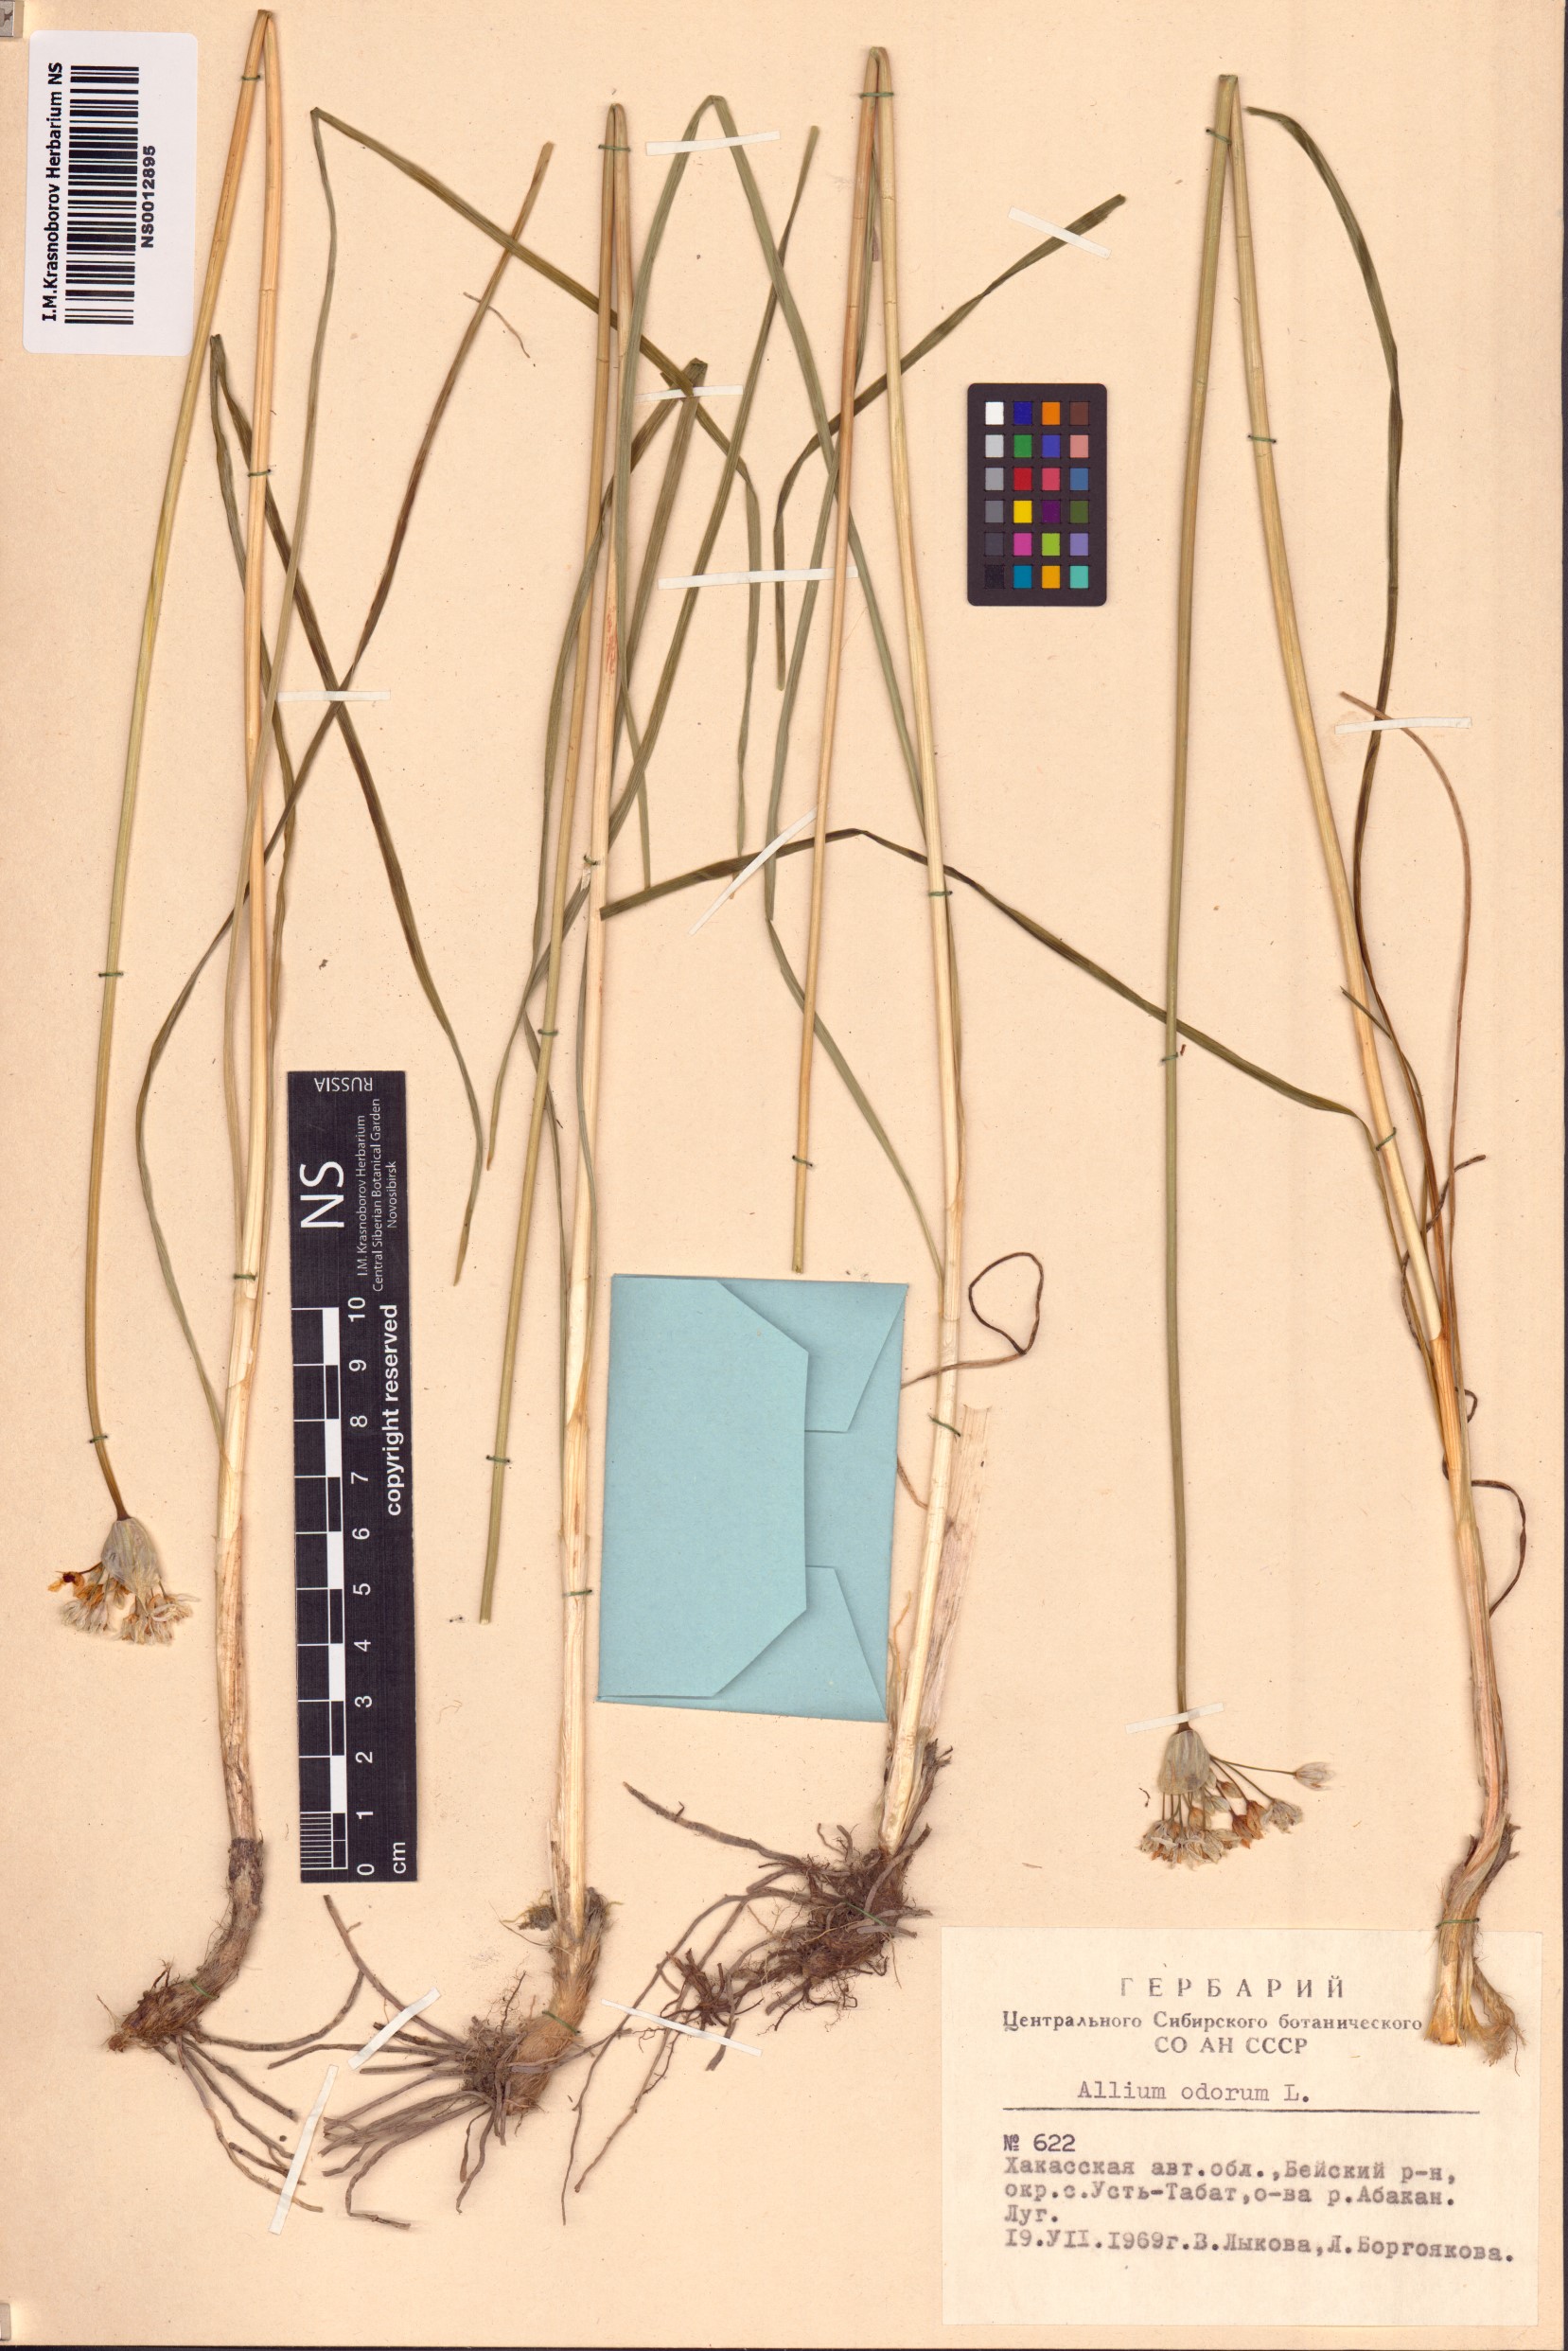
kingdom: Plantae
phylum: Tracheophyta
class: Liliopsida
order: Asparagales
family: Amaryllidaceae
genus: Allium
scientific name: Allium ramosum
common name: Fragrant garlic
